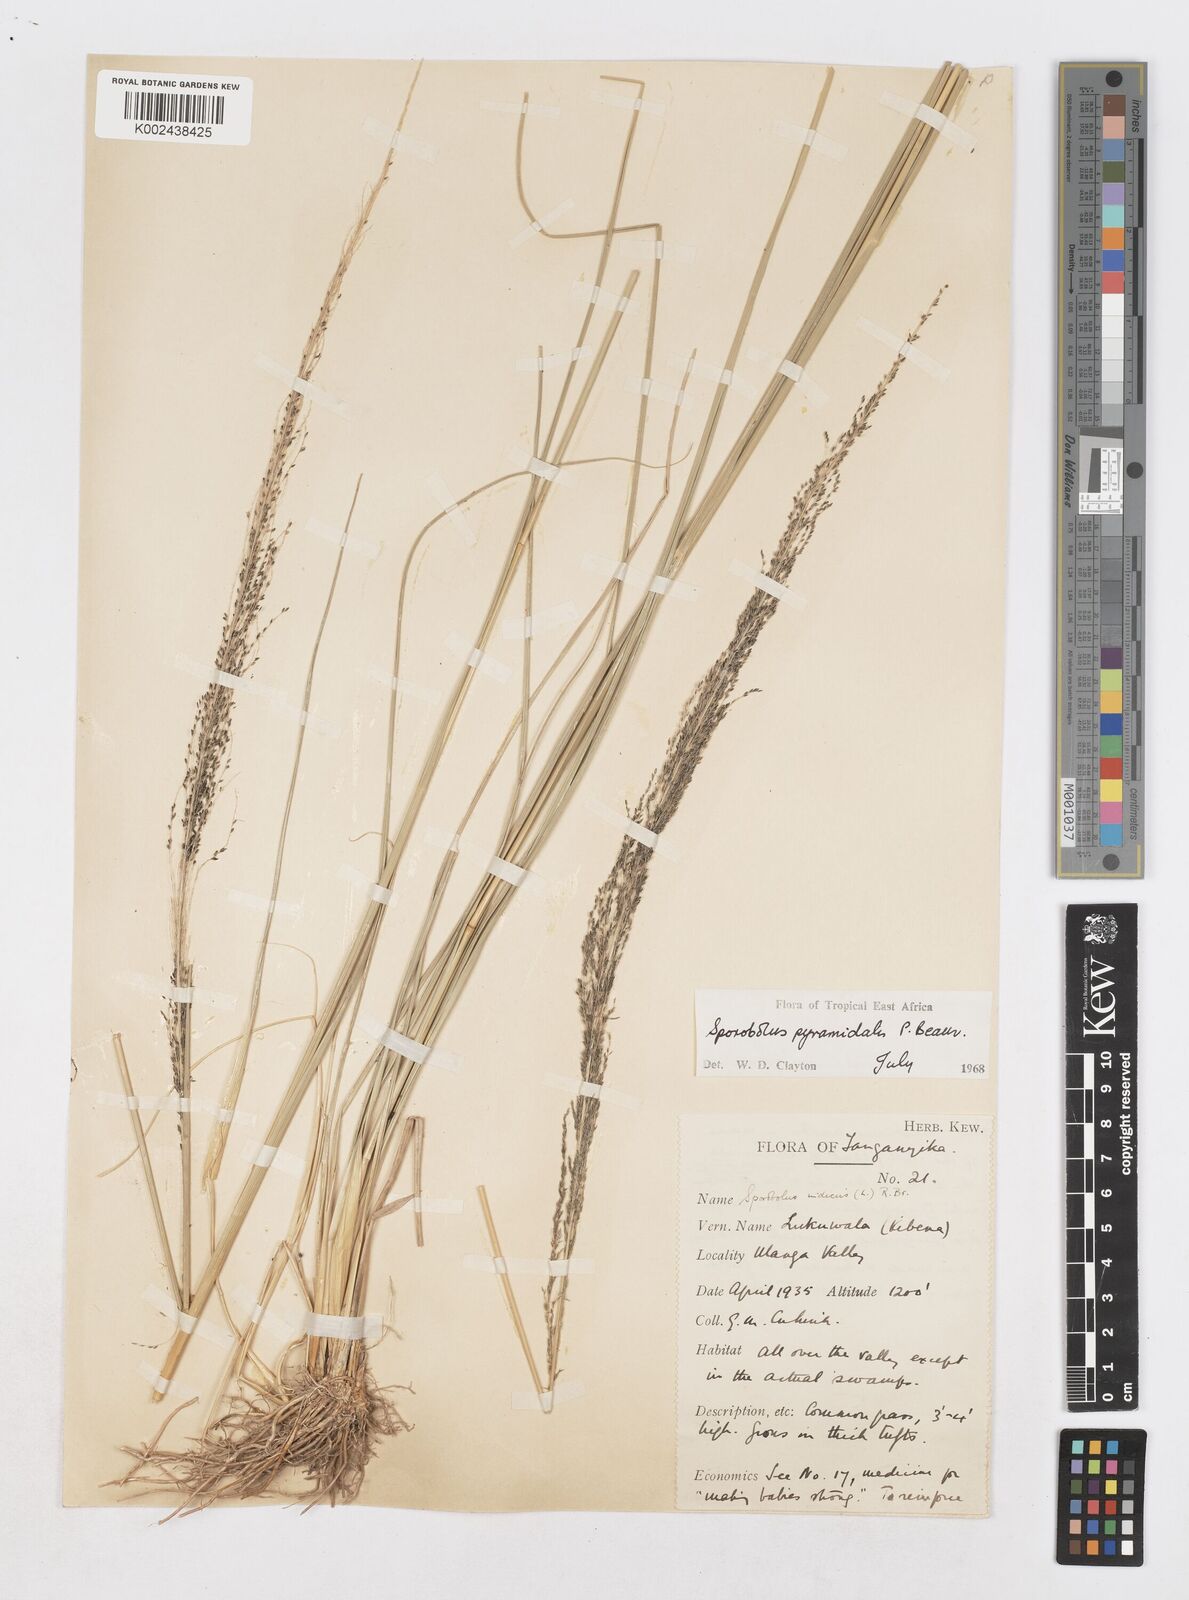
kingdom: Plantae
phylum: Tracheophyta
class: Liliopsida
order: Poales
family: Poaceae
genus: Sporobolus
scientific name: Sporobolus pyramidalis
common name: West indian dropseed
